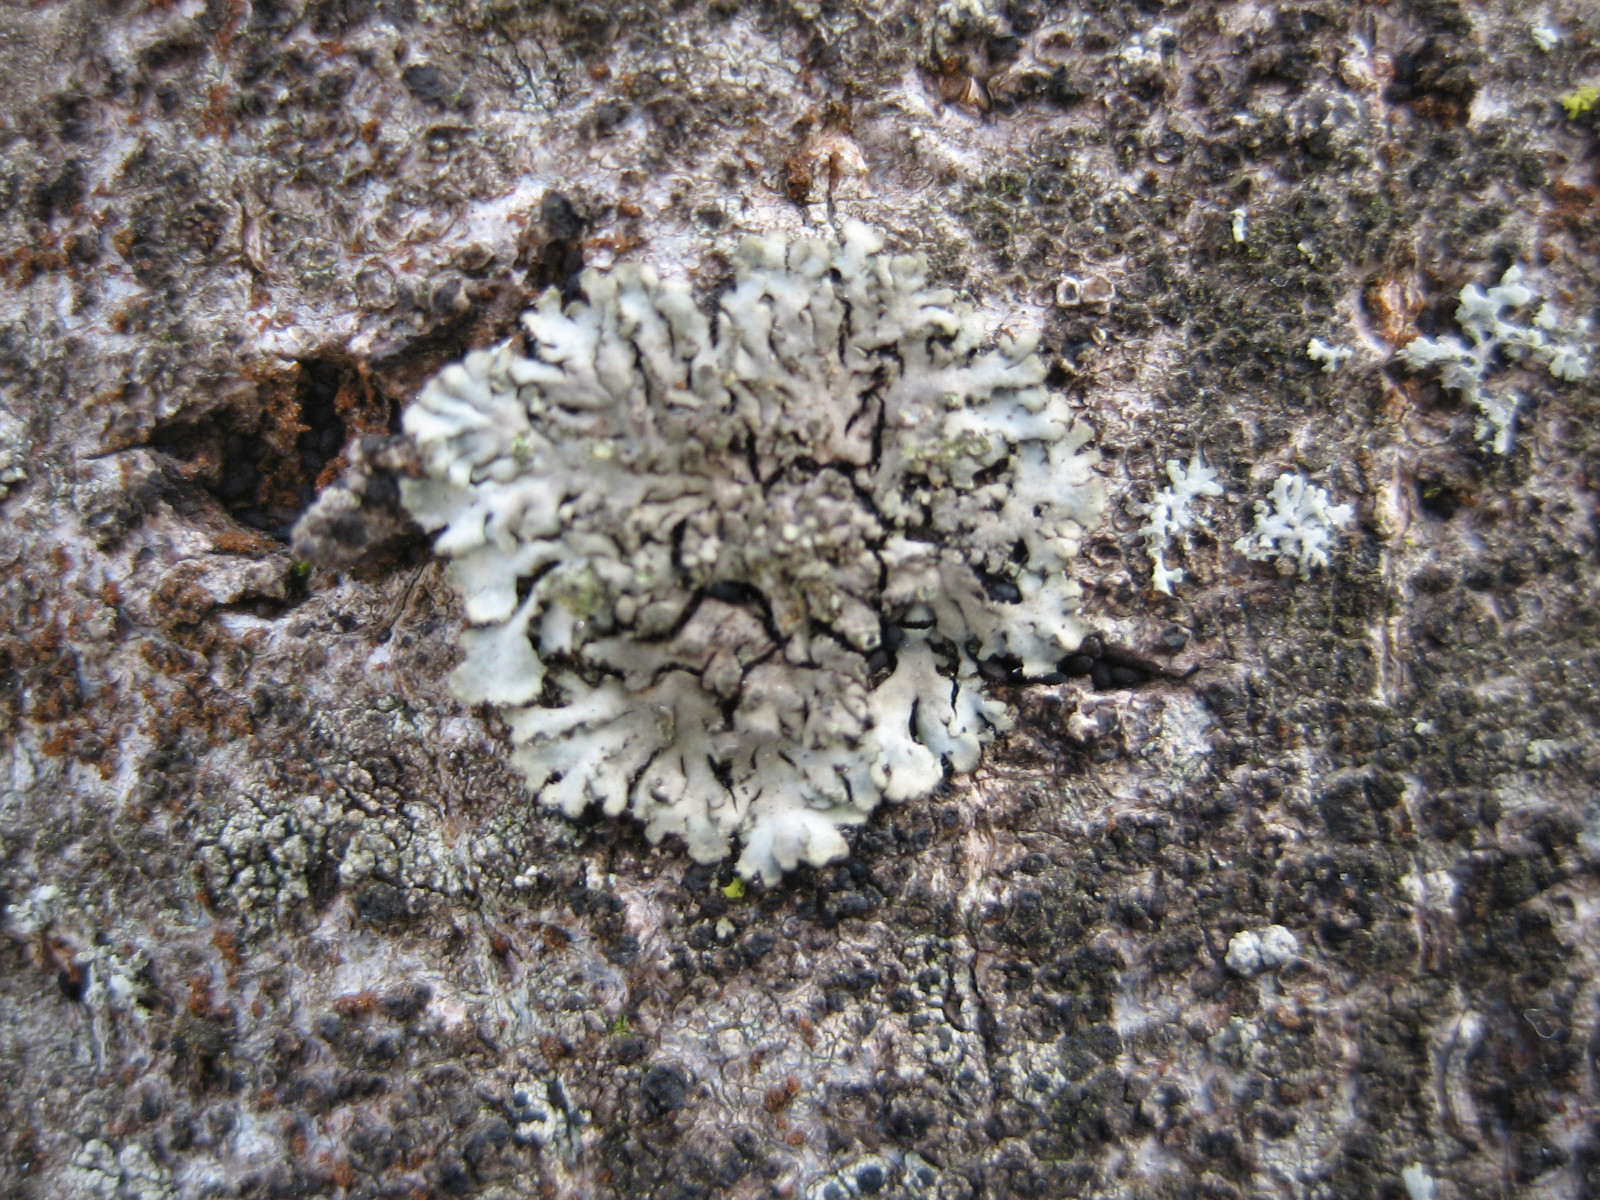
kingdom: Fungi
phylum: Ascomycota
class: Lecanoromycetes
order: Caliciales
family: Physciaceae
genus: Phaeophyscia
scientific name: Phaeophyscia orbicularis
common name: grågrøn rosetlav
